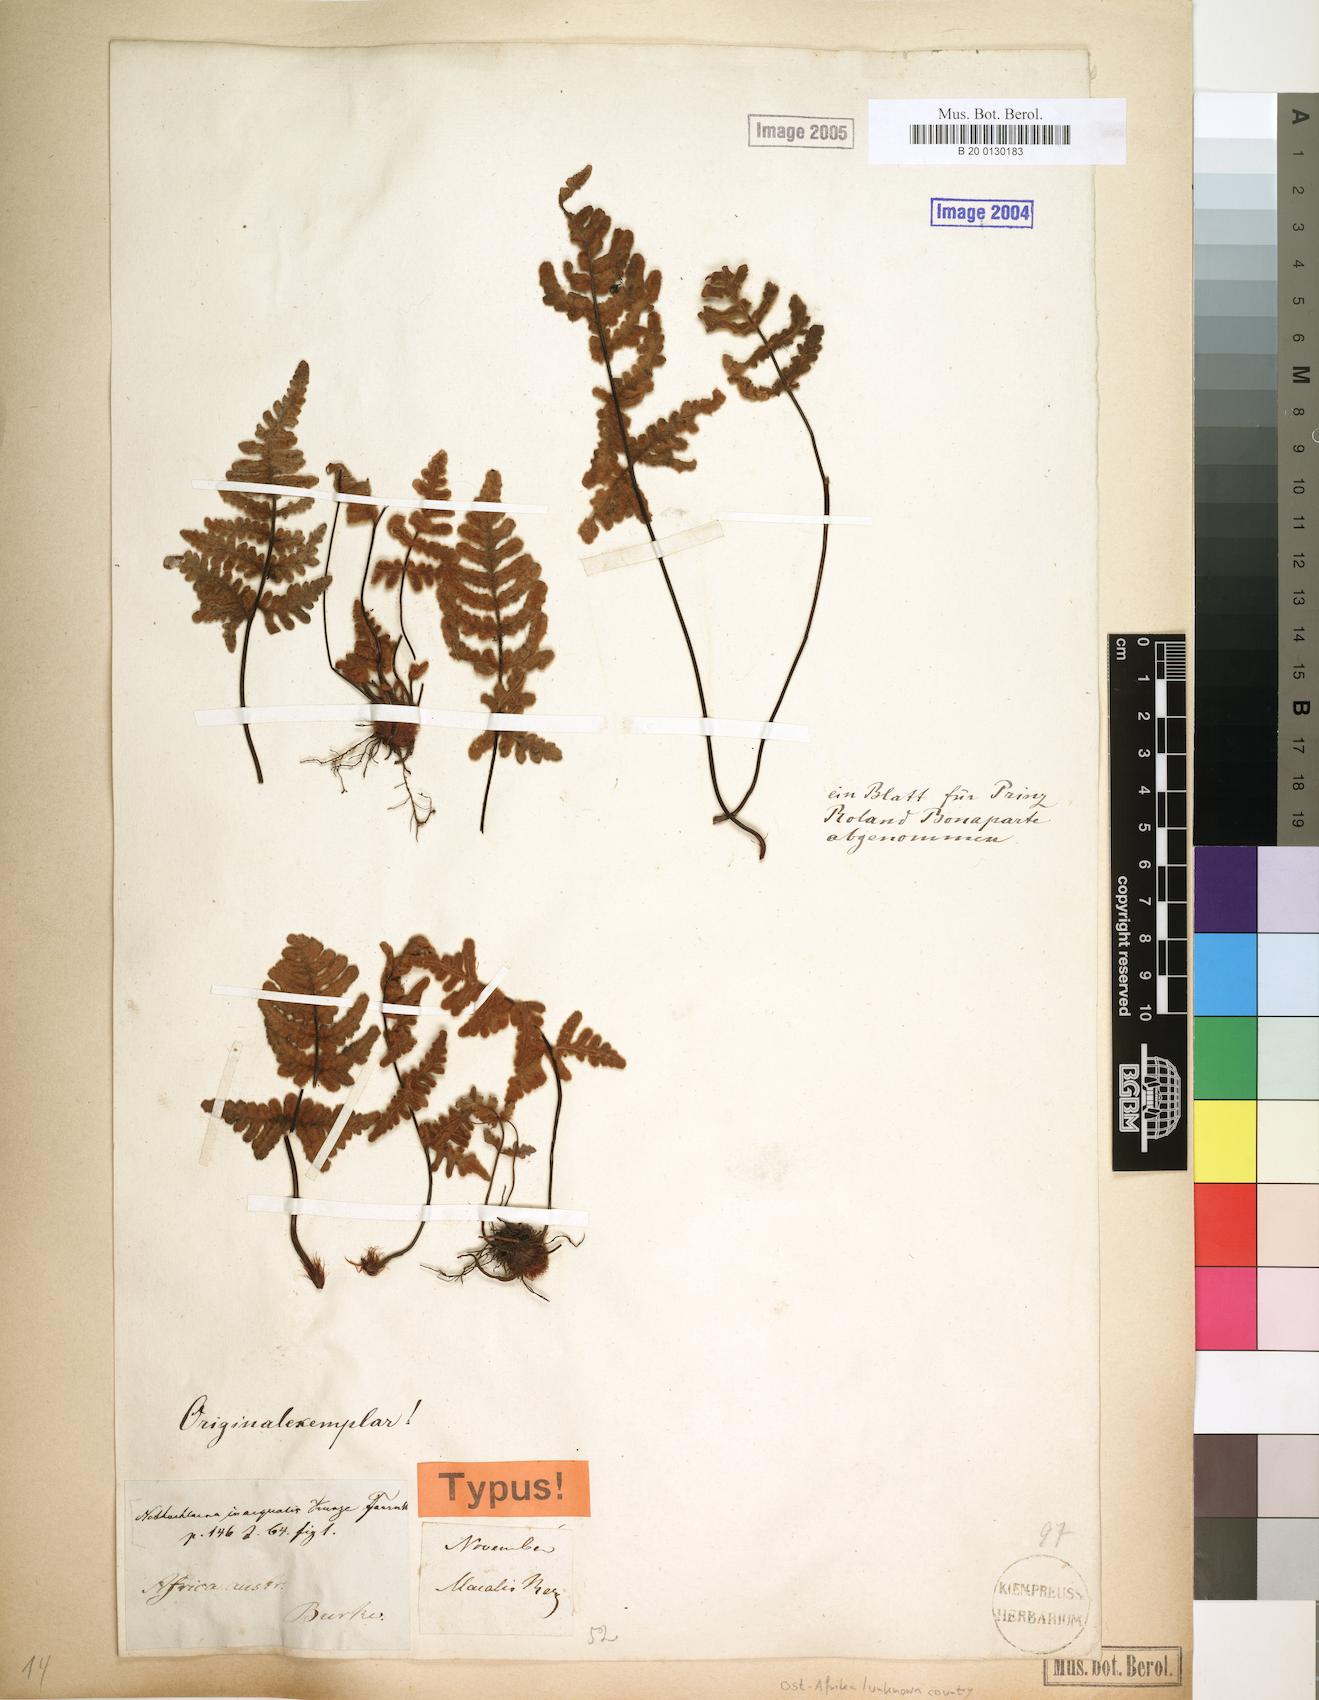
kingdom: Plantae
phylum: Tracheophyta
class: Polypodiopsida
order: Polypodiales
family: Pteridaceae
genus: Cheilanthes
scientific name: Cheilanthes inaequalis
